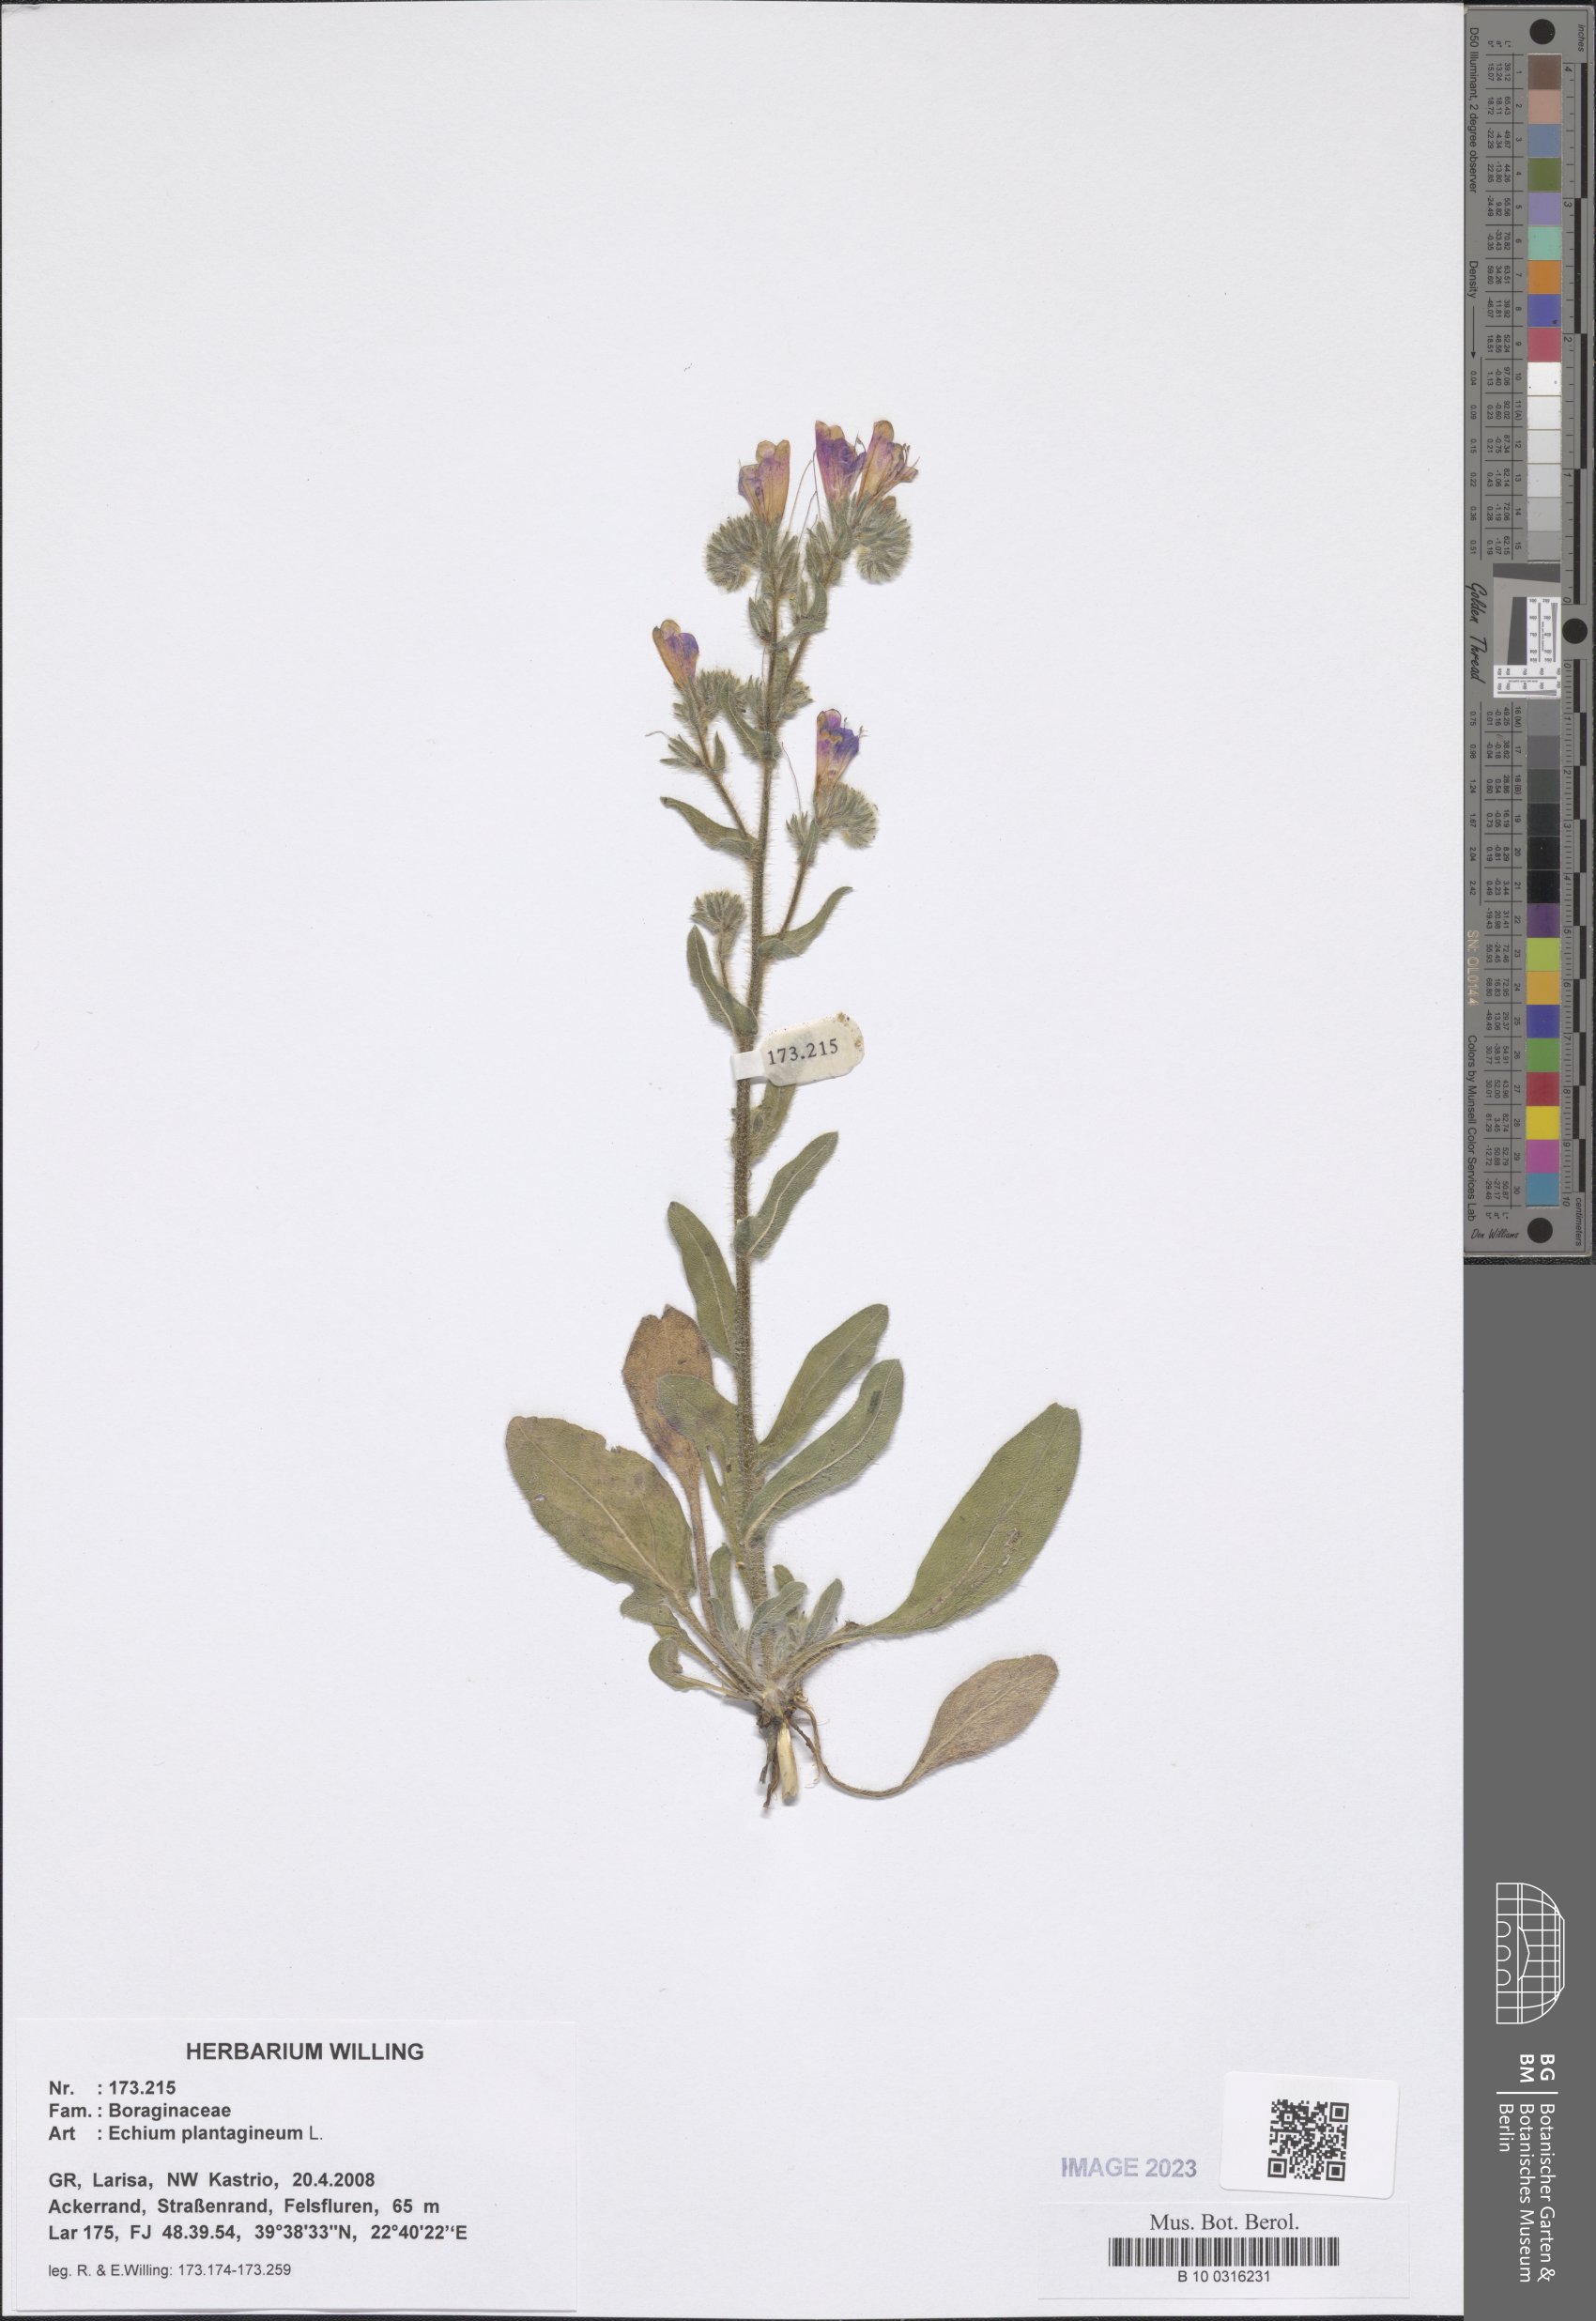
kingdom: Plantae
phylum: Tracheophyta
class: Magnoliopsida
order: Boraginales
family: Boraginaceae
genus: Echium
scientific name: Echium plantagineum
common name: Purple viper's-bugloss
